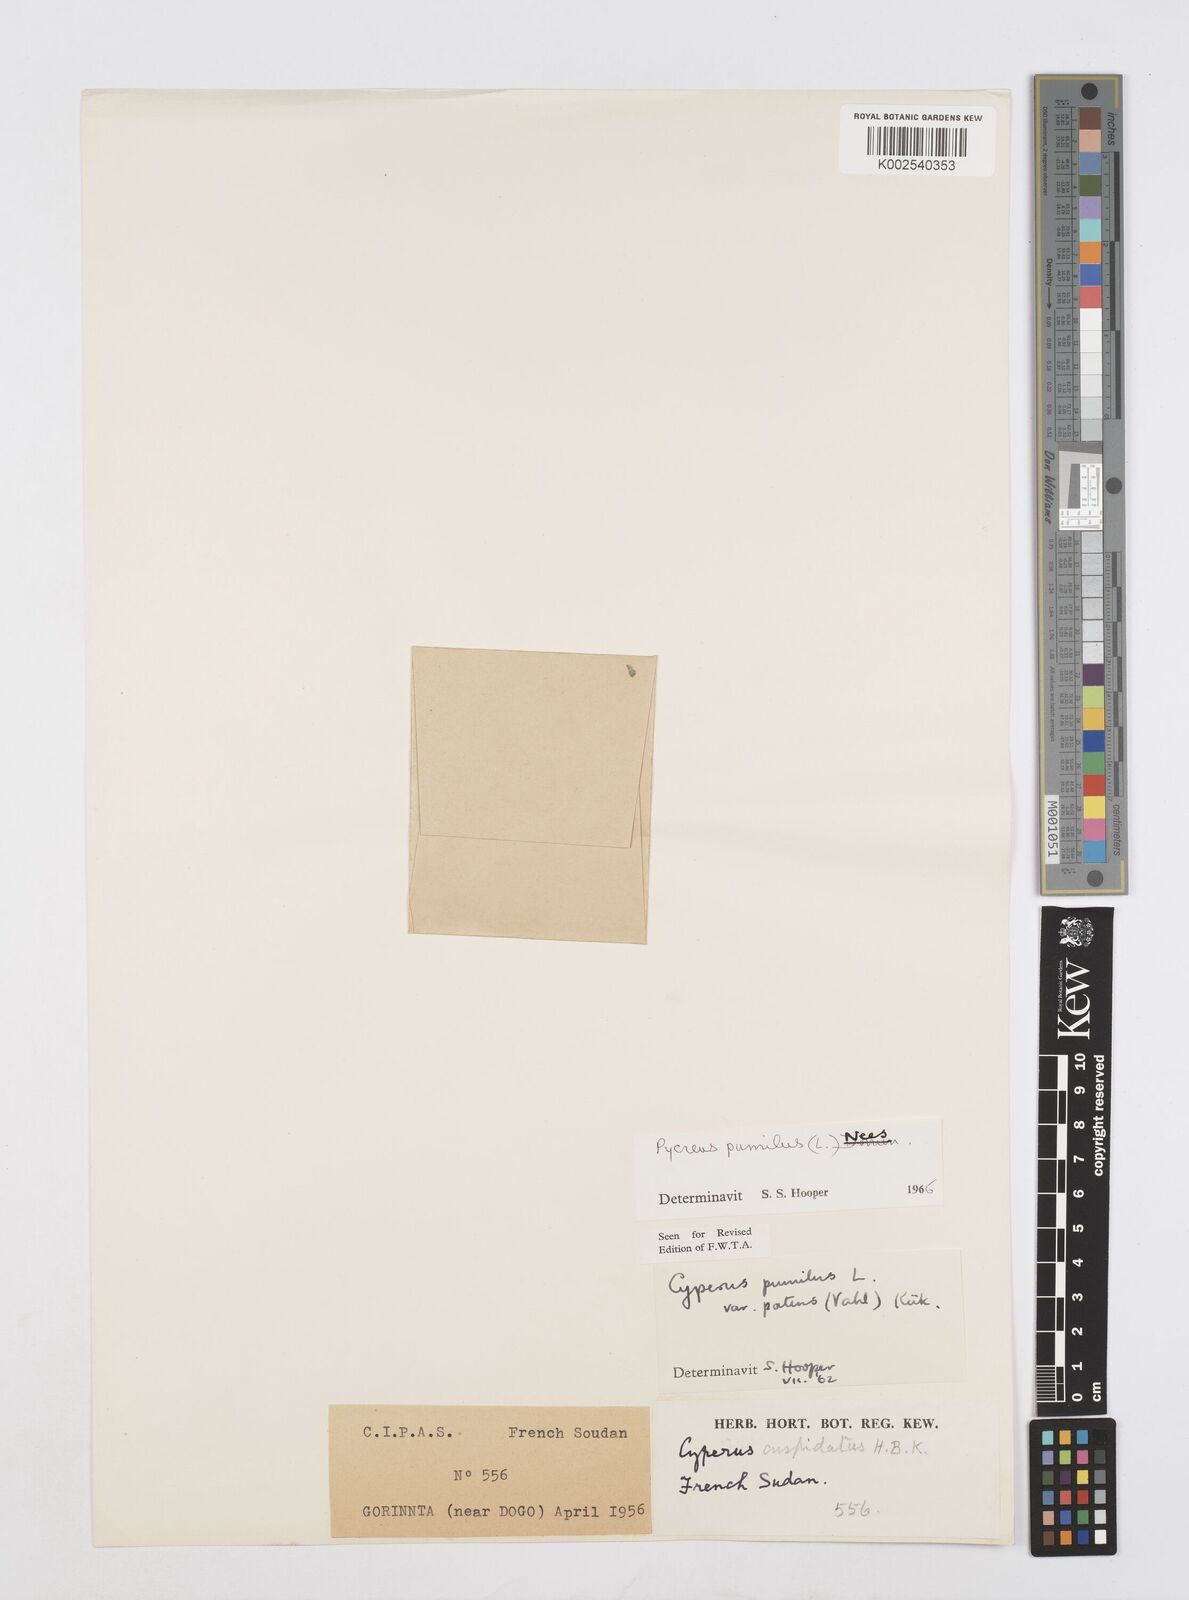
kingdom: Plantae
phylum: Tracheophyta
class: Liliopsida
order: Poales
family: Cyperaceae
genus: Cyperus
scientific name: Cyperus pumilus
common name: Low flatsedge
